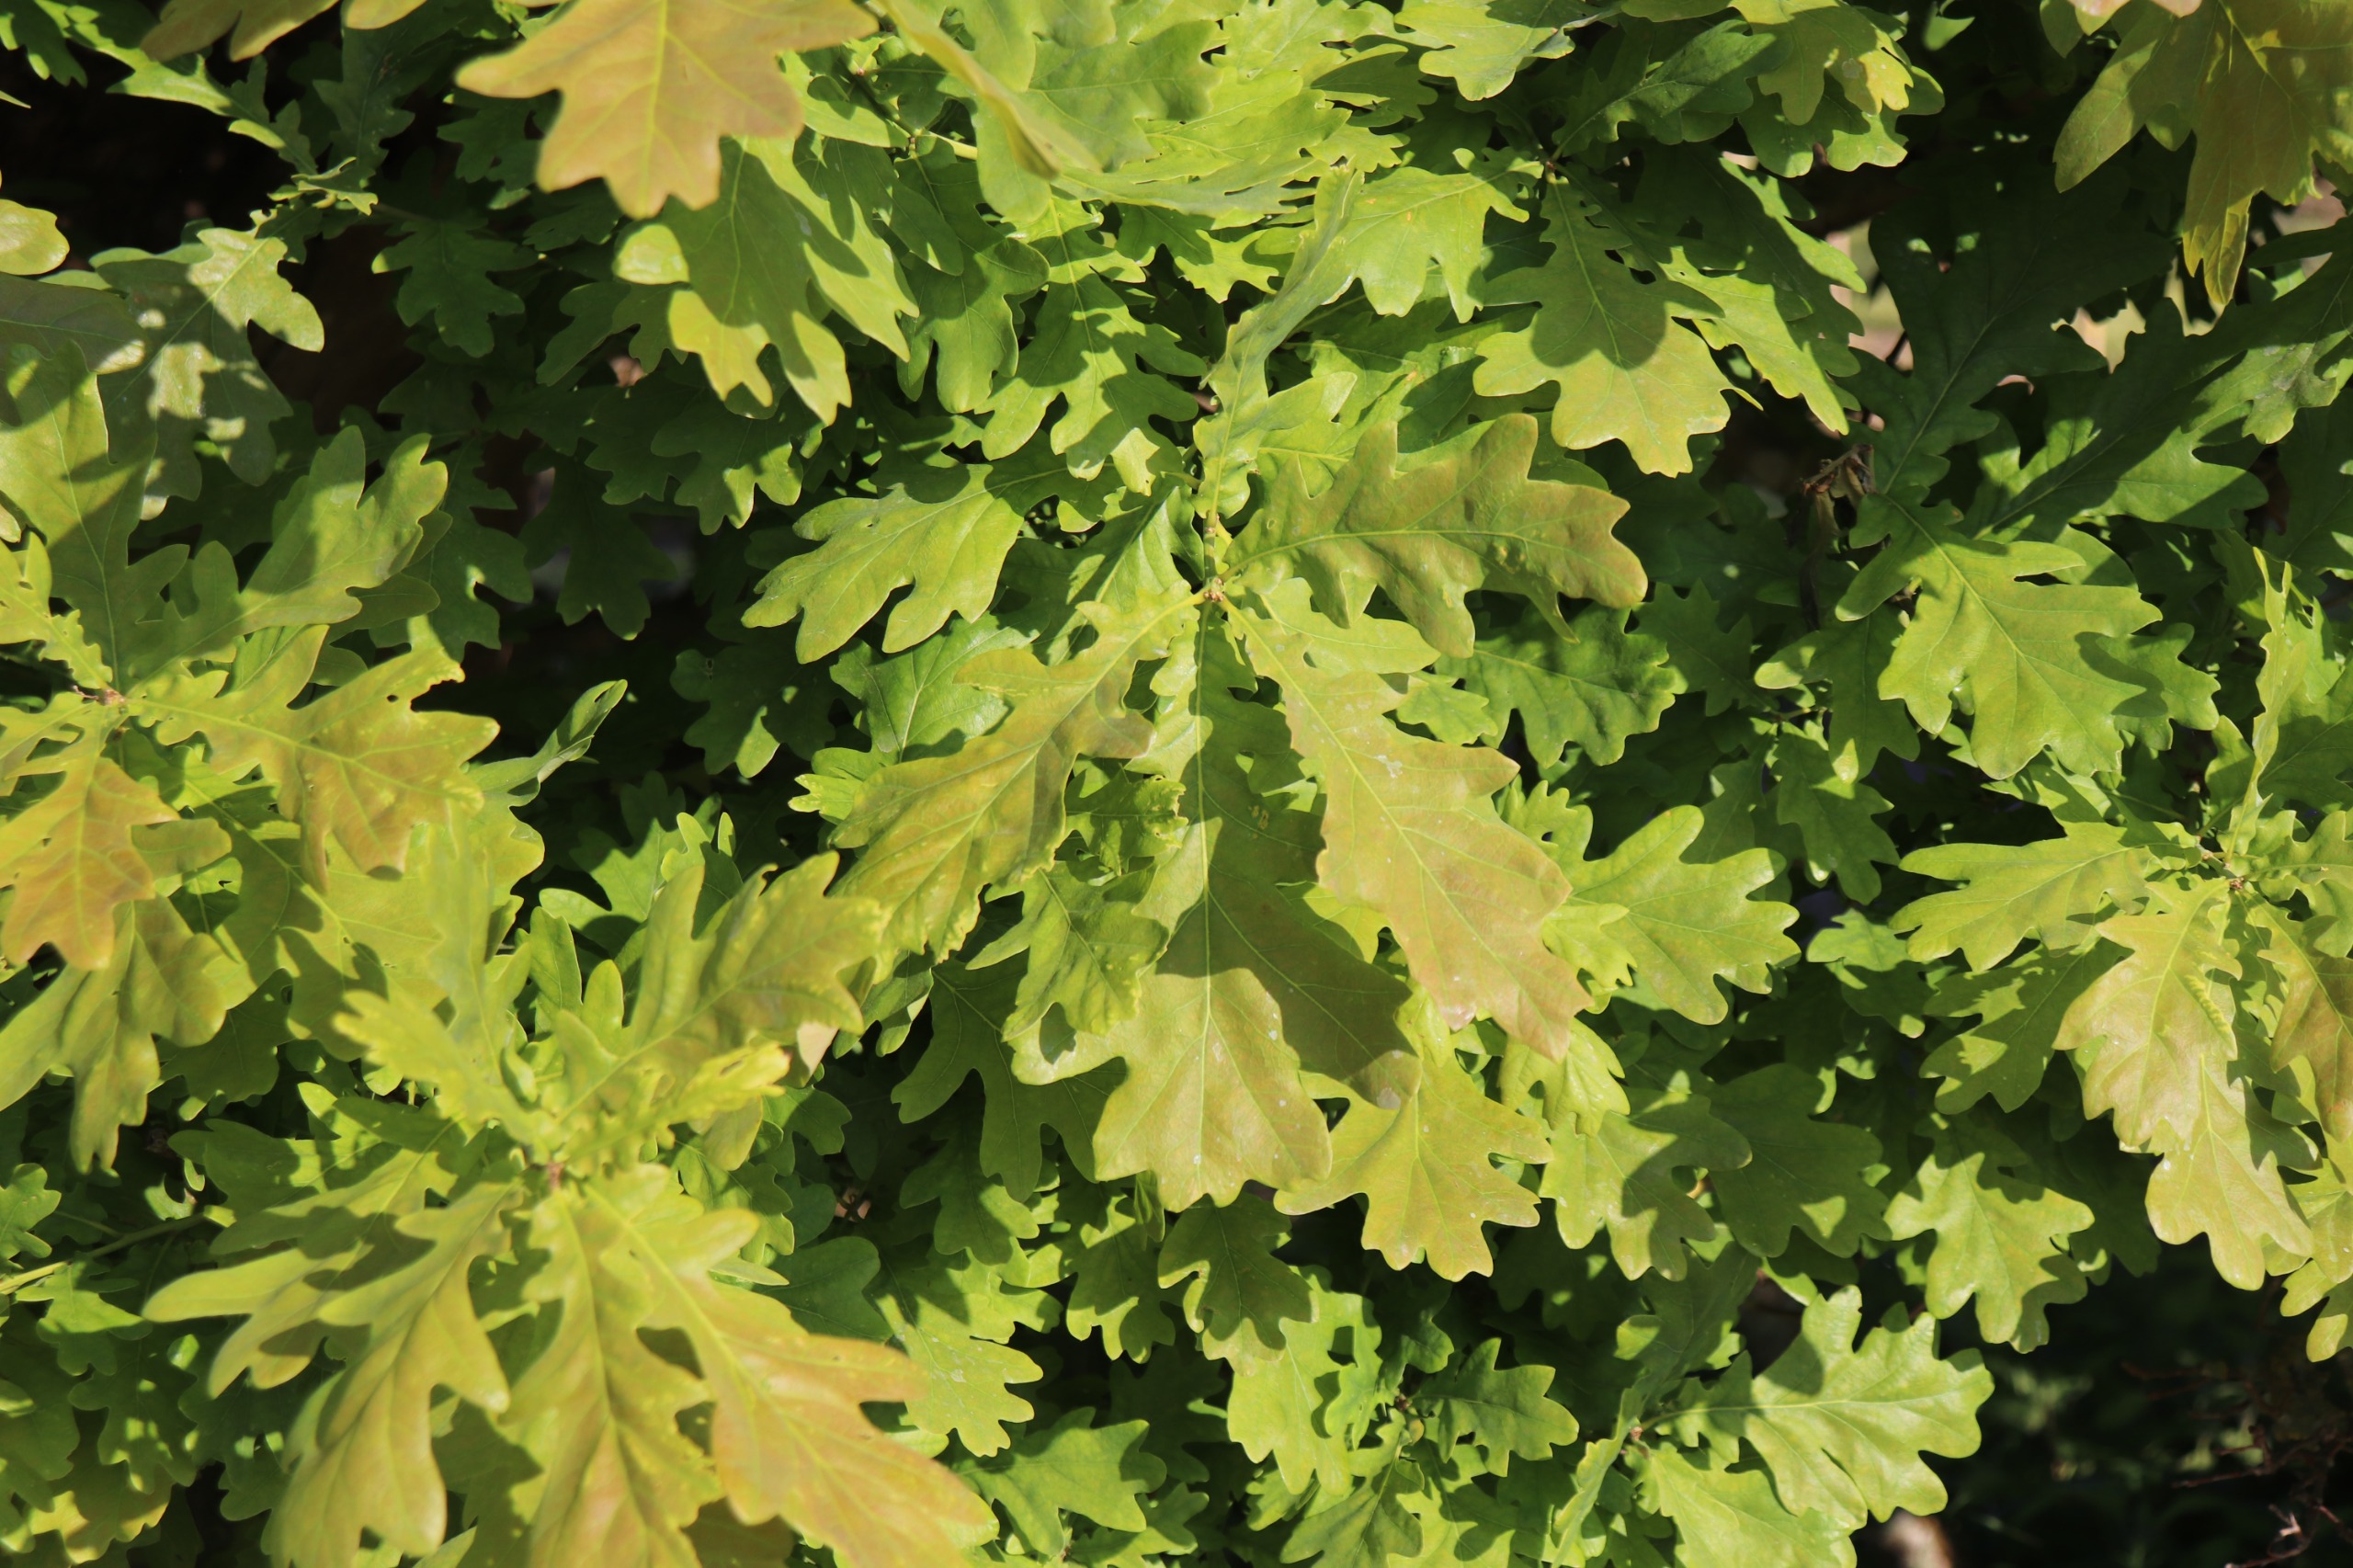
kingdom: Plantae
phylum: Tracheophyta
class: Magnoliopsida
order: Fagales
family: Fagaceae
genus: Quercus
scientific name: Quercus robur
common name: Stilk-eg/almindelig eg
